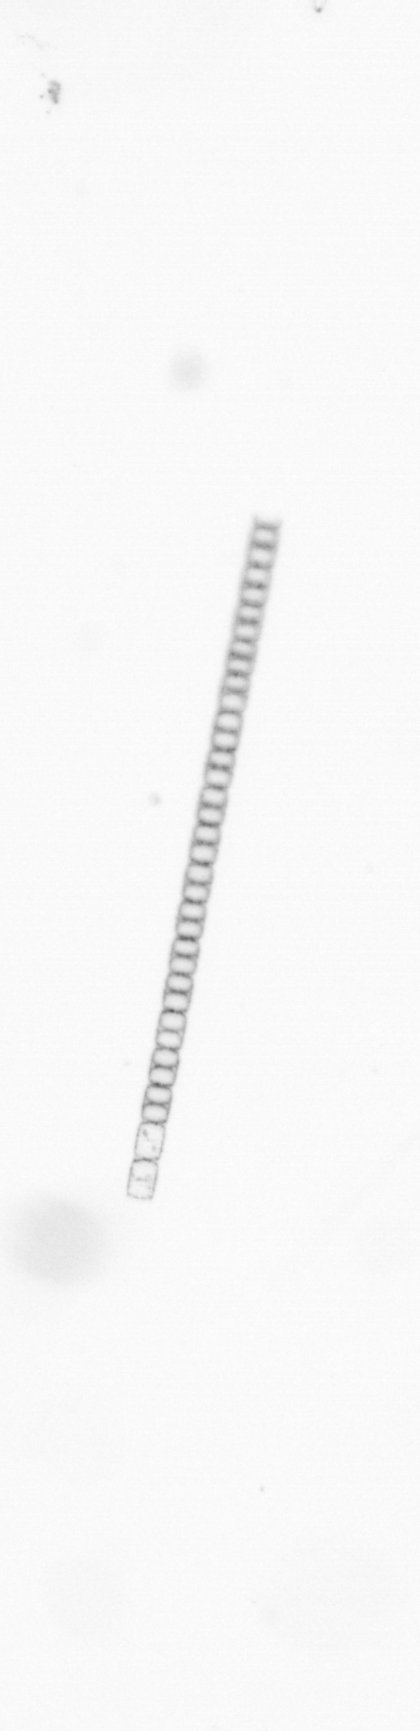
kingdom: Chromista
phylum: Ochrophyta
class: Bacillariophyceae
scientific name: Bacillariophyceae
